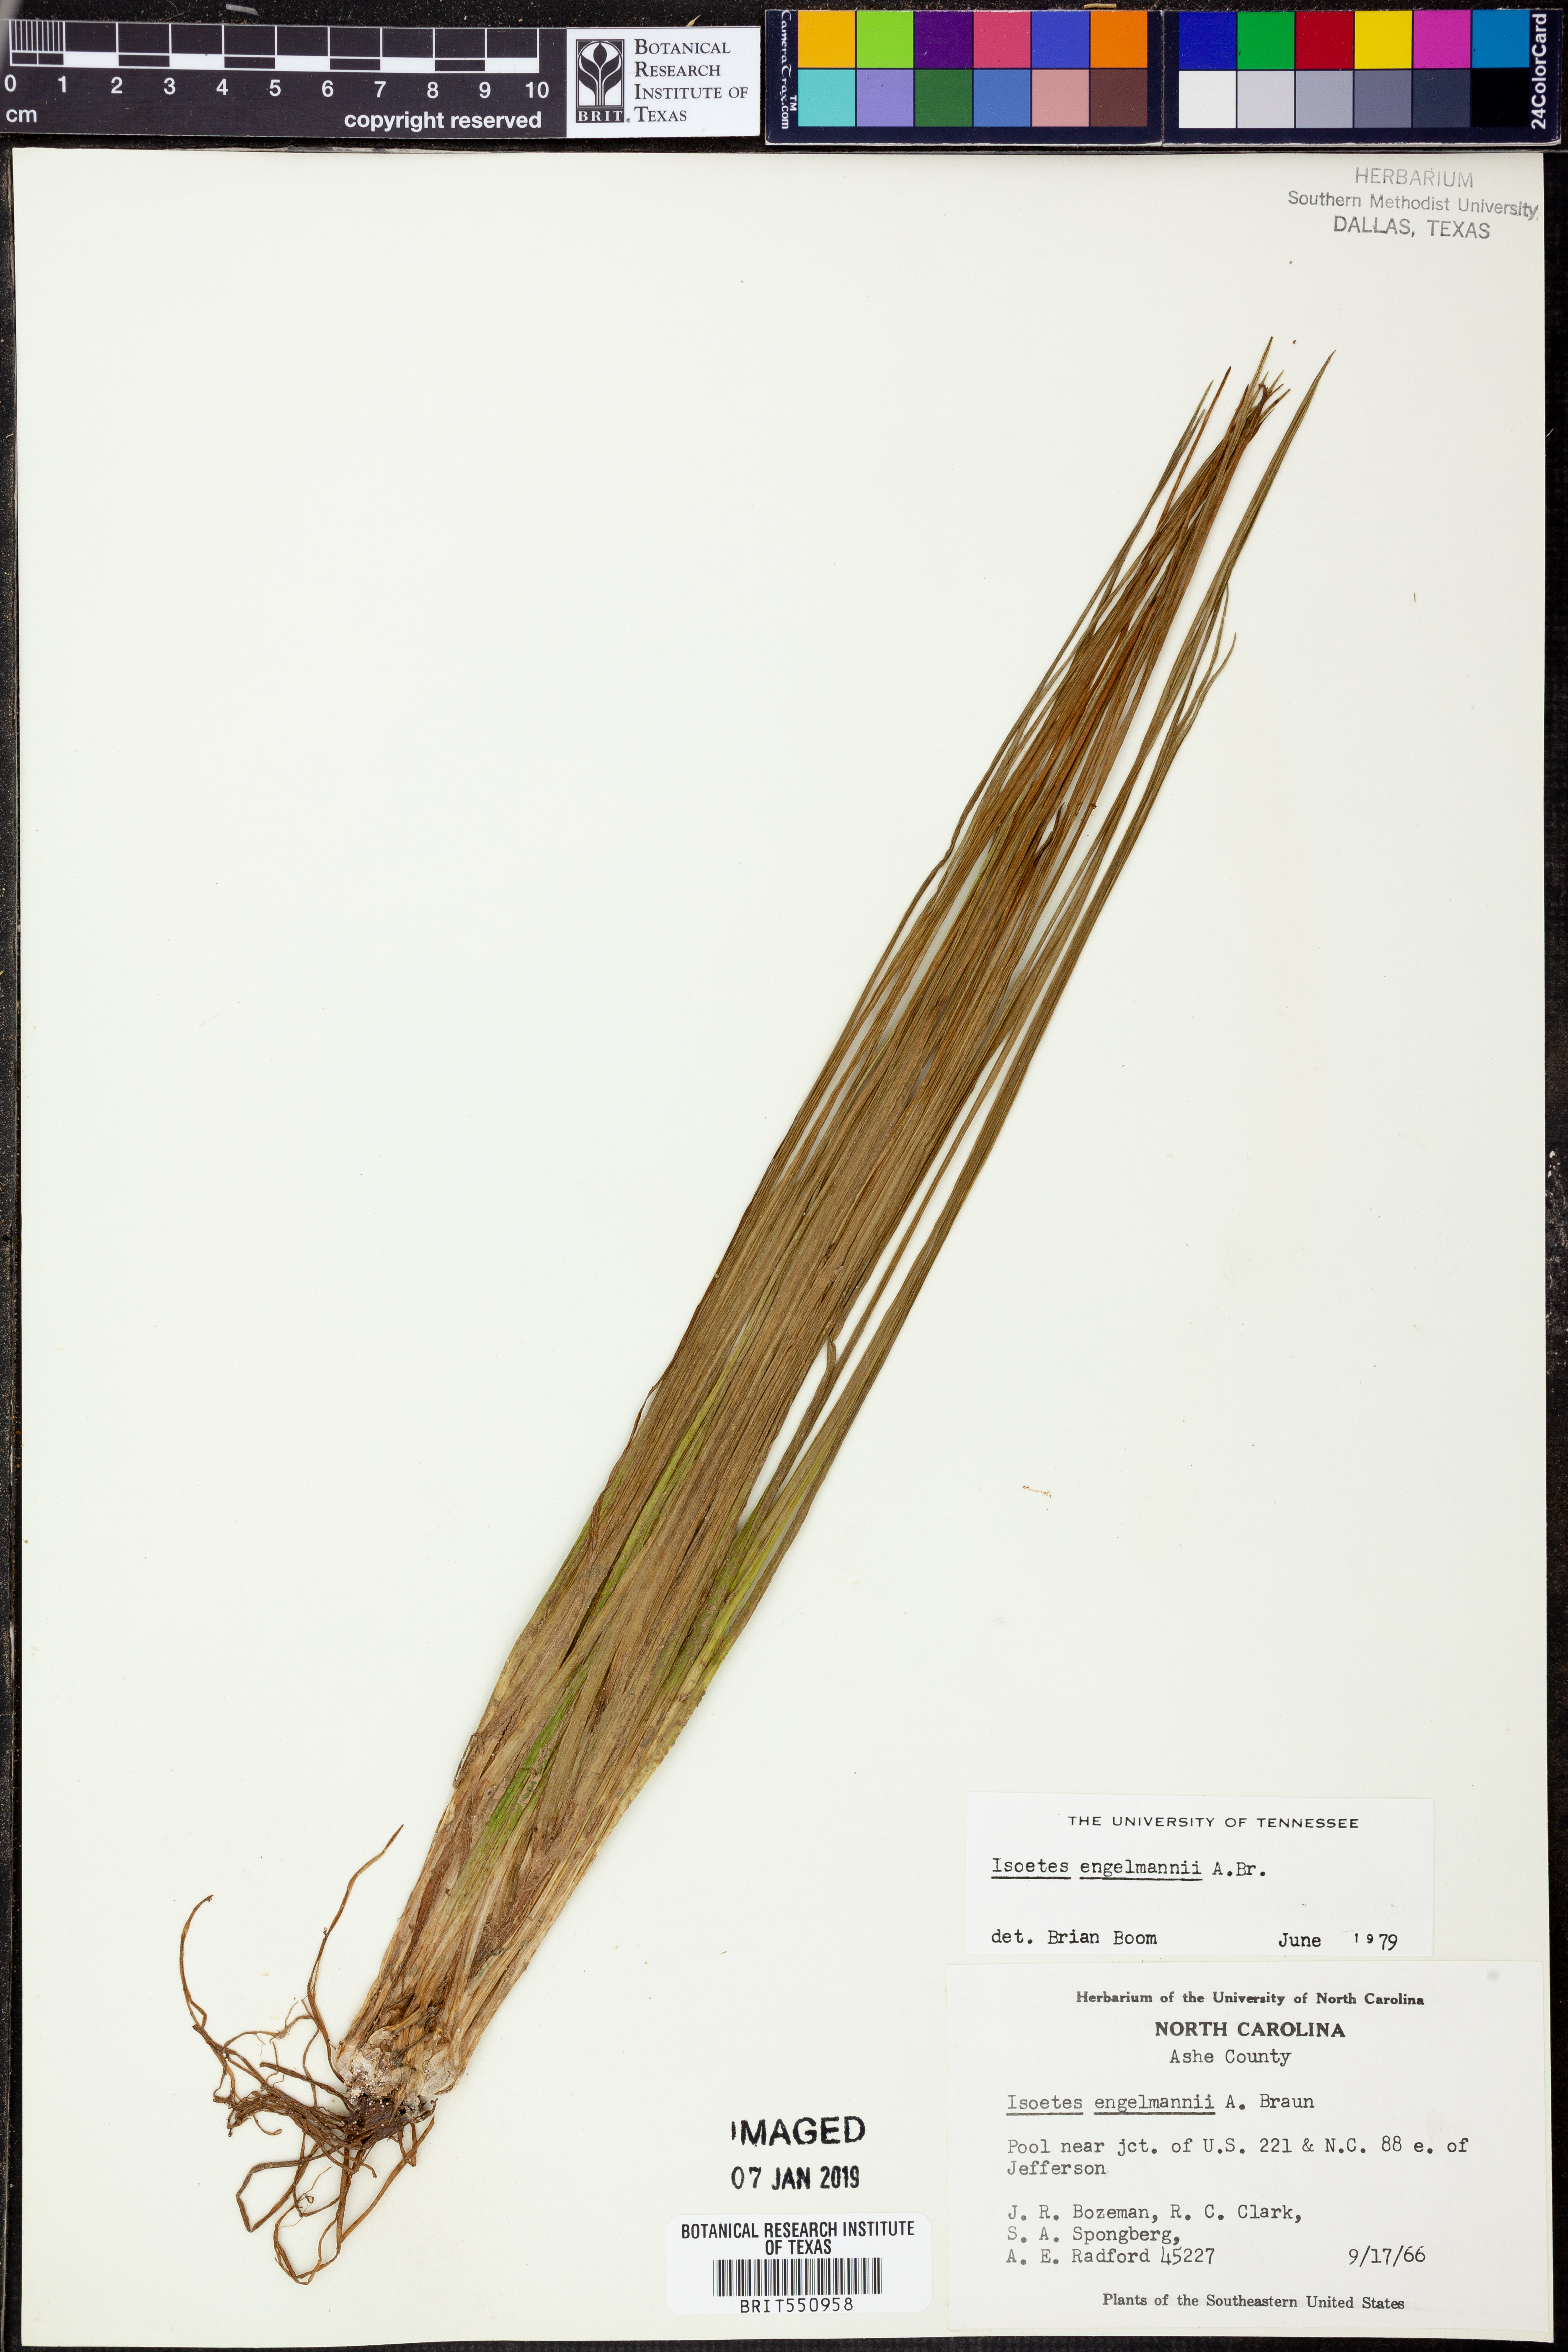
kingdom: Plantae
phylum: Tracheophyta
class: Lycopodiopsida
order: Isoetales
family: Isoetaceae
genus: Isoetes
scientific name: Isoetes engelmannii
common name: Engelmann's quillwort
